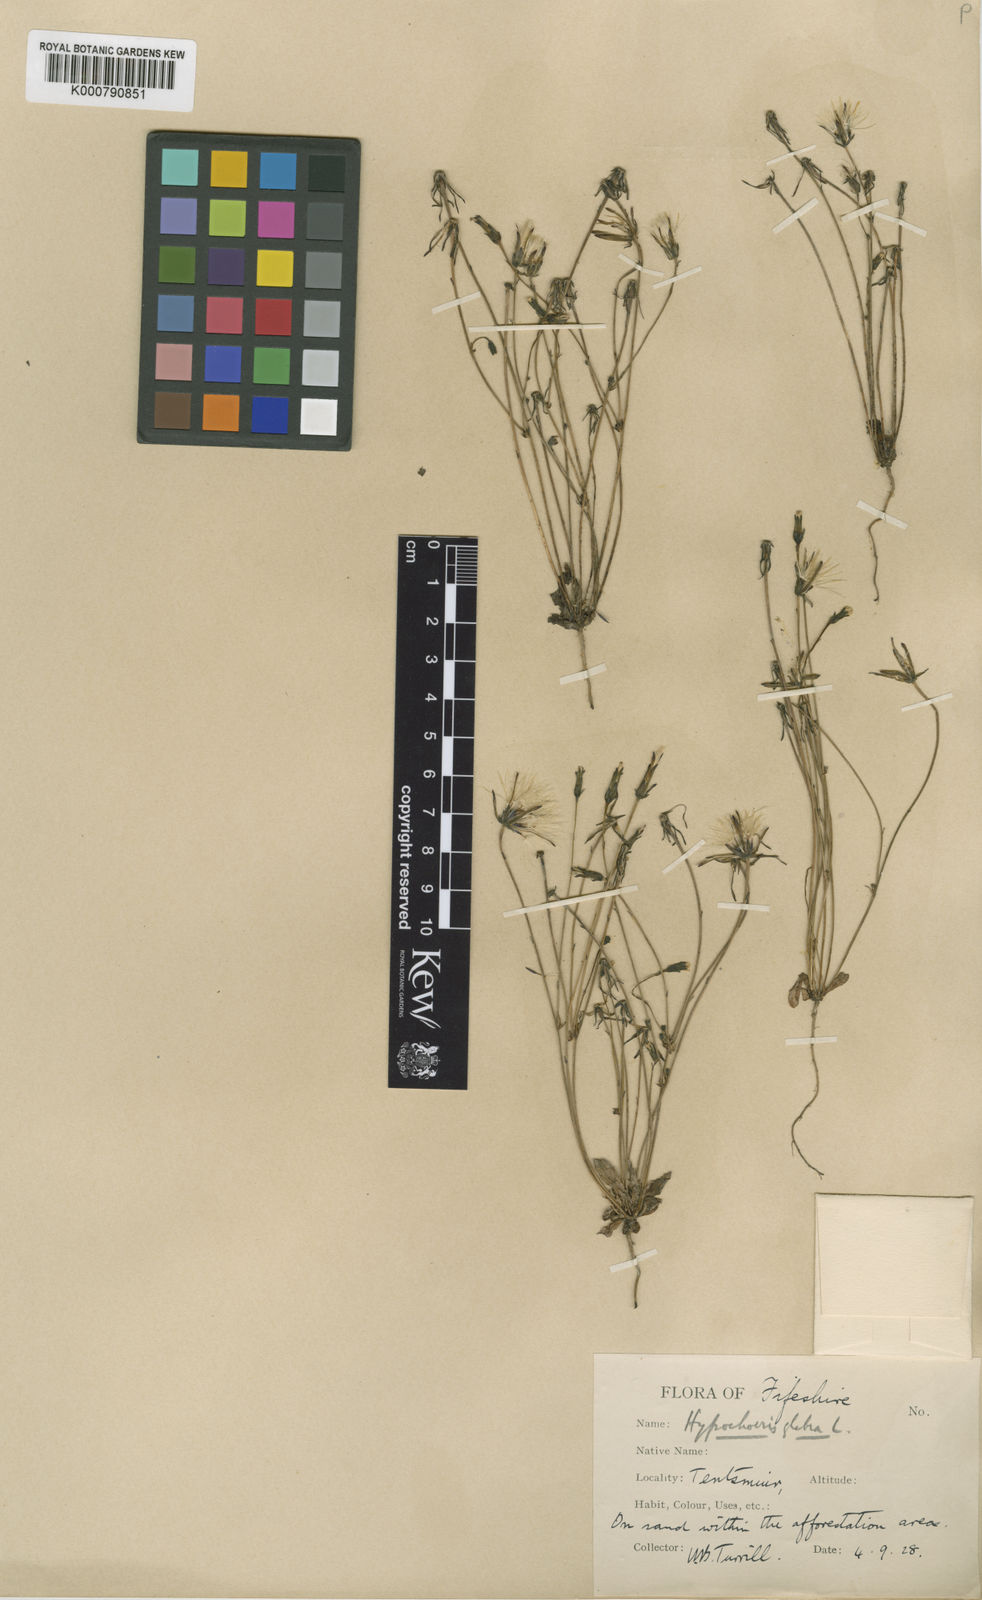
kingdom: Plantae
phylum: Tracheophyta
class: Magnoliopsida
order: Asterales
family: Asteraceae
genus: Hypochaeris
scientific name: Hypochaeris glabra
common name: Smooth catsear
